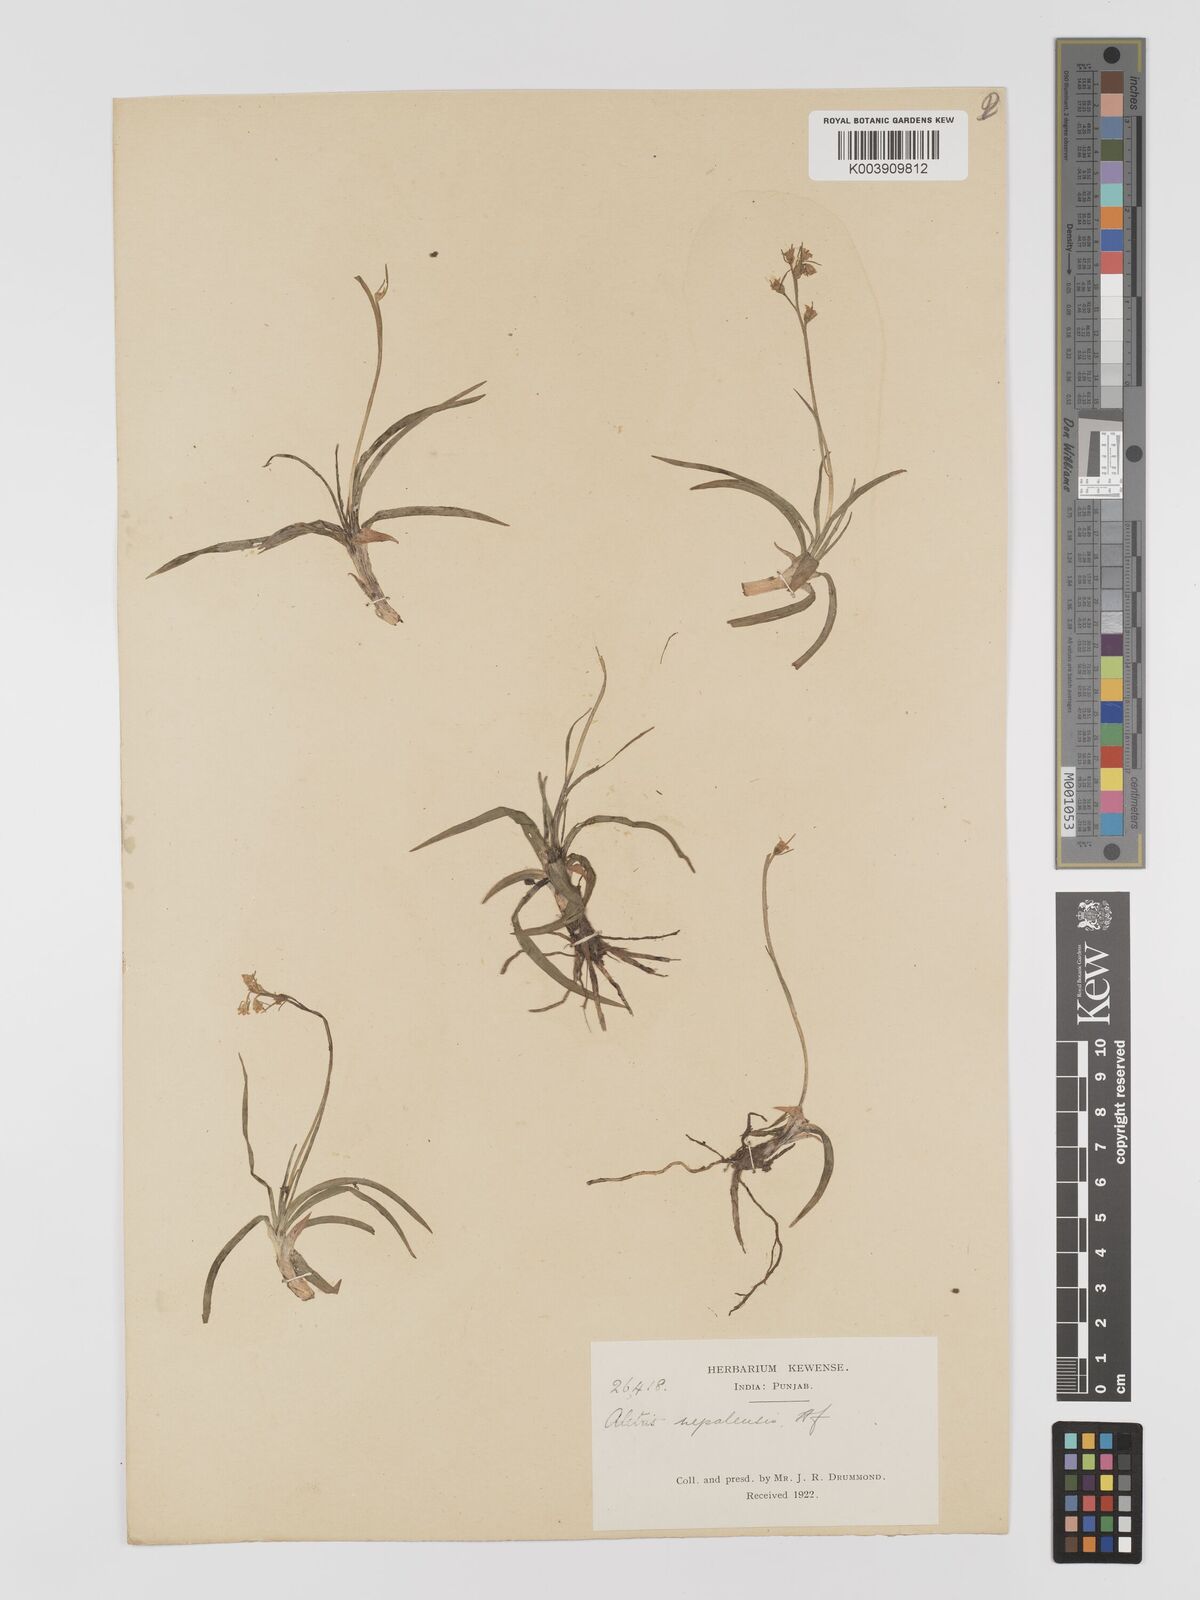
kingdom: Plantae
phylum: Tracheophyta
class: Liliopsida
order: Dioscoreales
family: Nartheciaceae
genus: Aletris
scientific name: Aletris pauciflora
